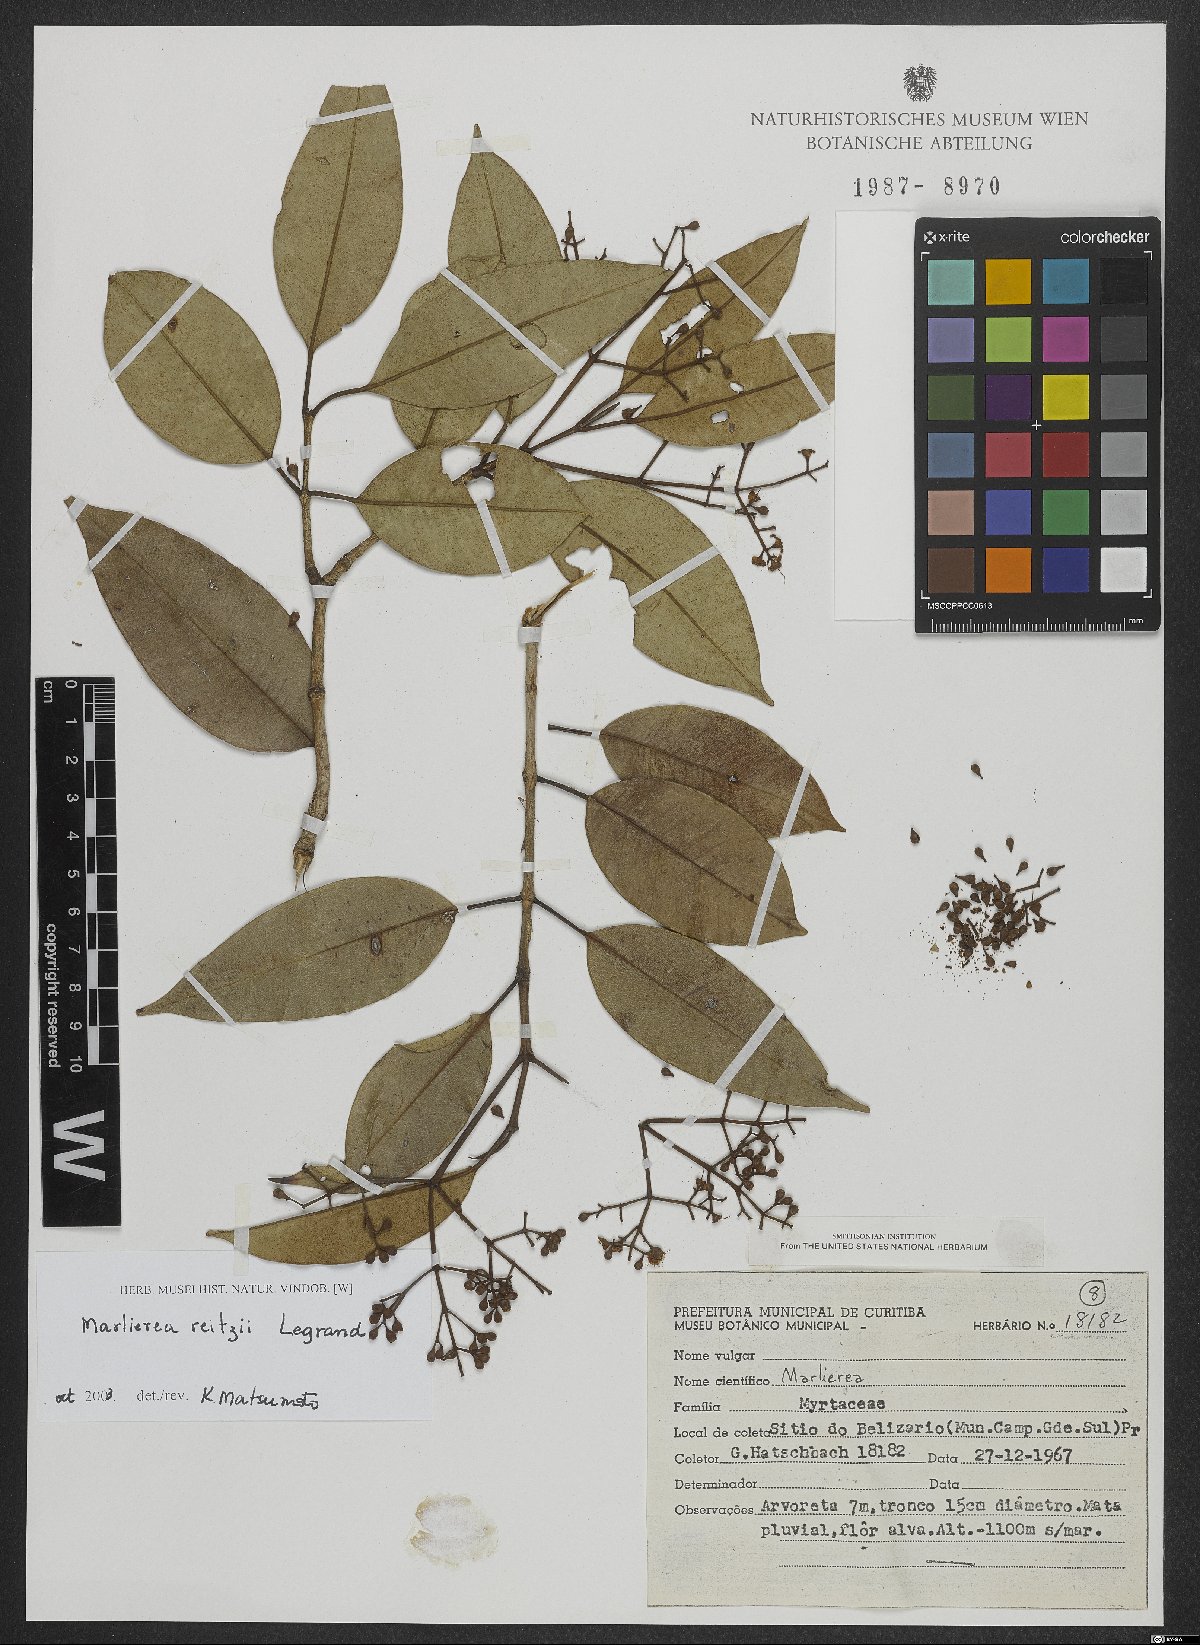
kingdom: Plantae
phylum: Tracheophyta
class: Magnoliopsida
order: Myrtales
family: Myrtaceae
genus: Myrcia
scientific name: Myrcia reitzii
